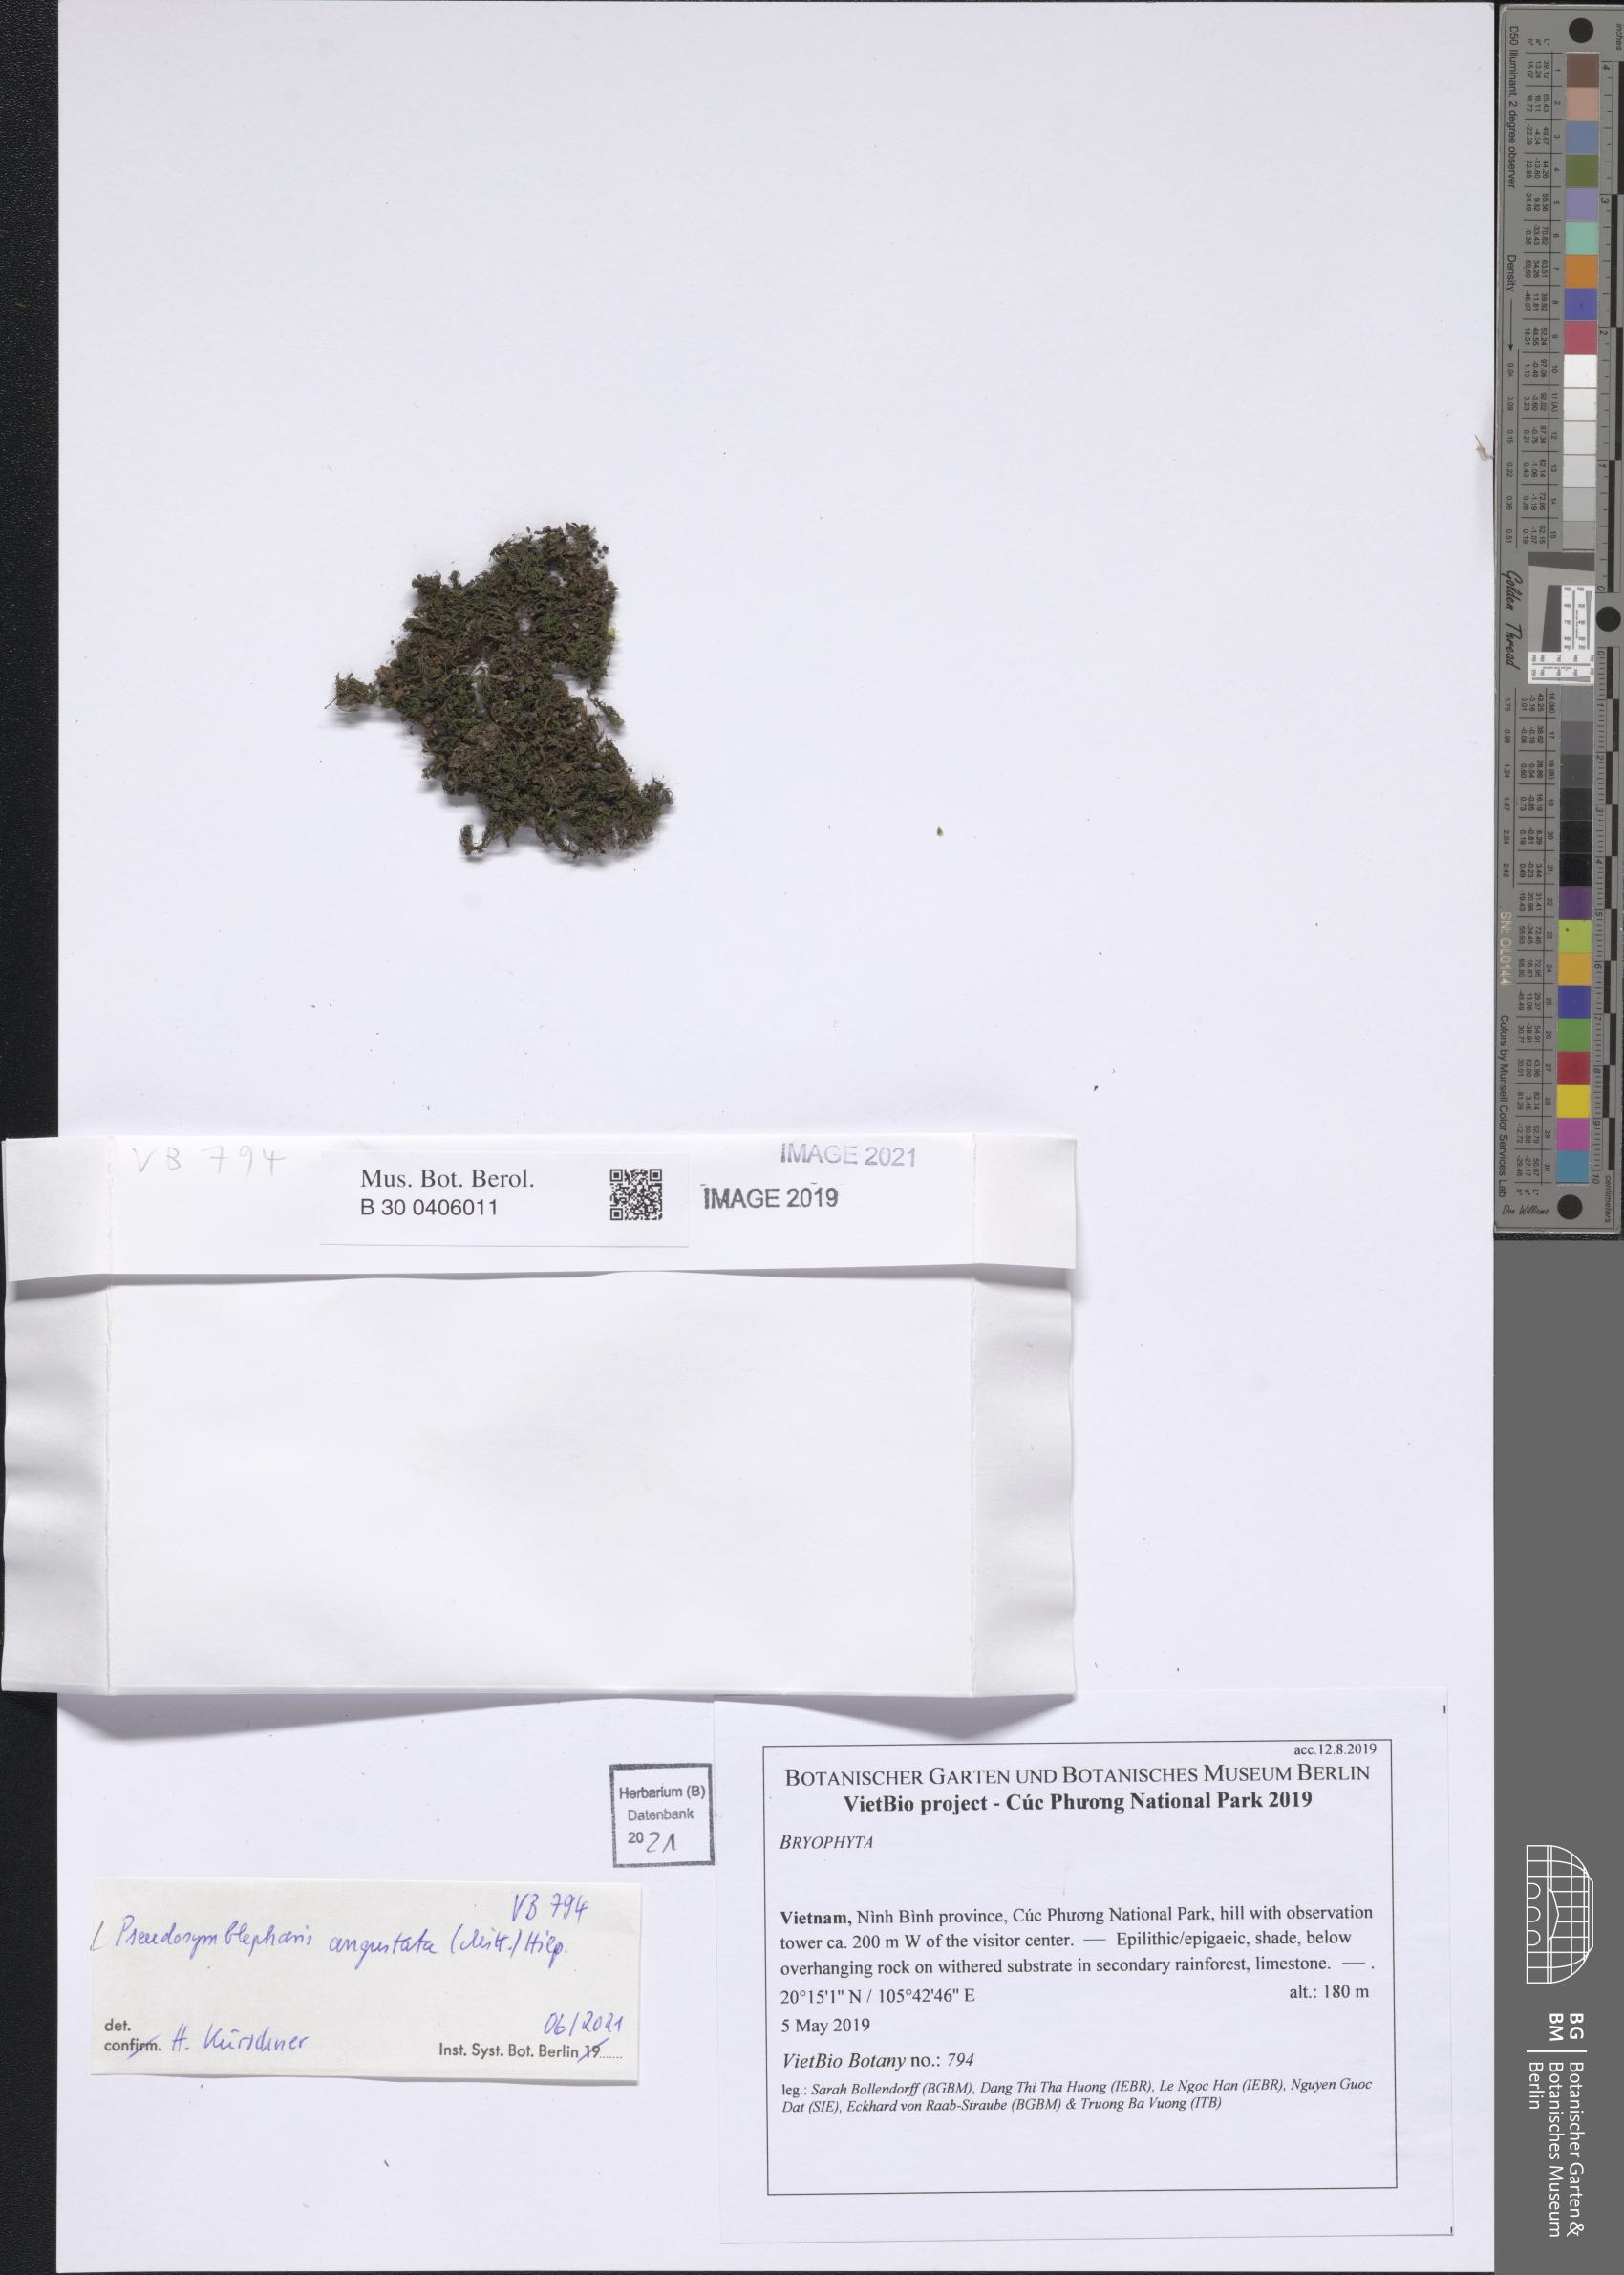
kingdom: Plantae
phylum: Bryophyta
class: Bryopsida
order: Pottiales
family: Pottiaceae
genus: Chionoloma
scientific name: Chionoloma angustatum
